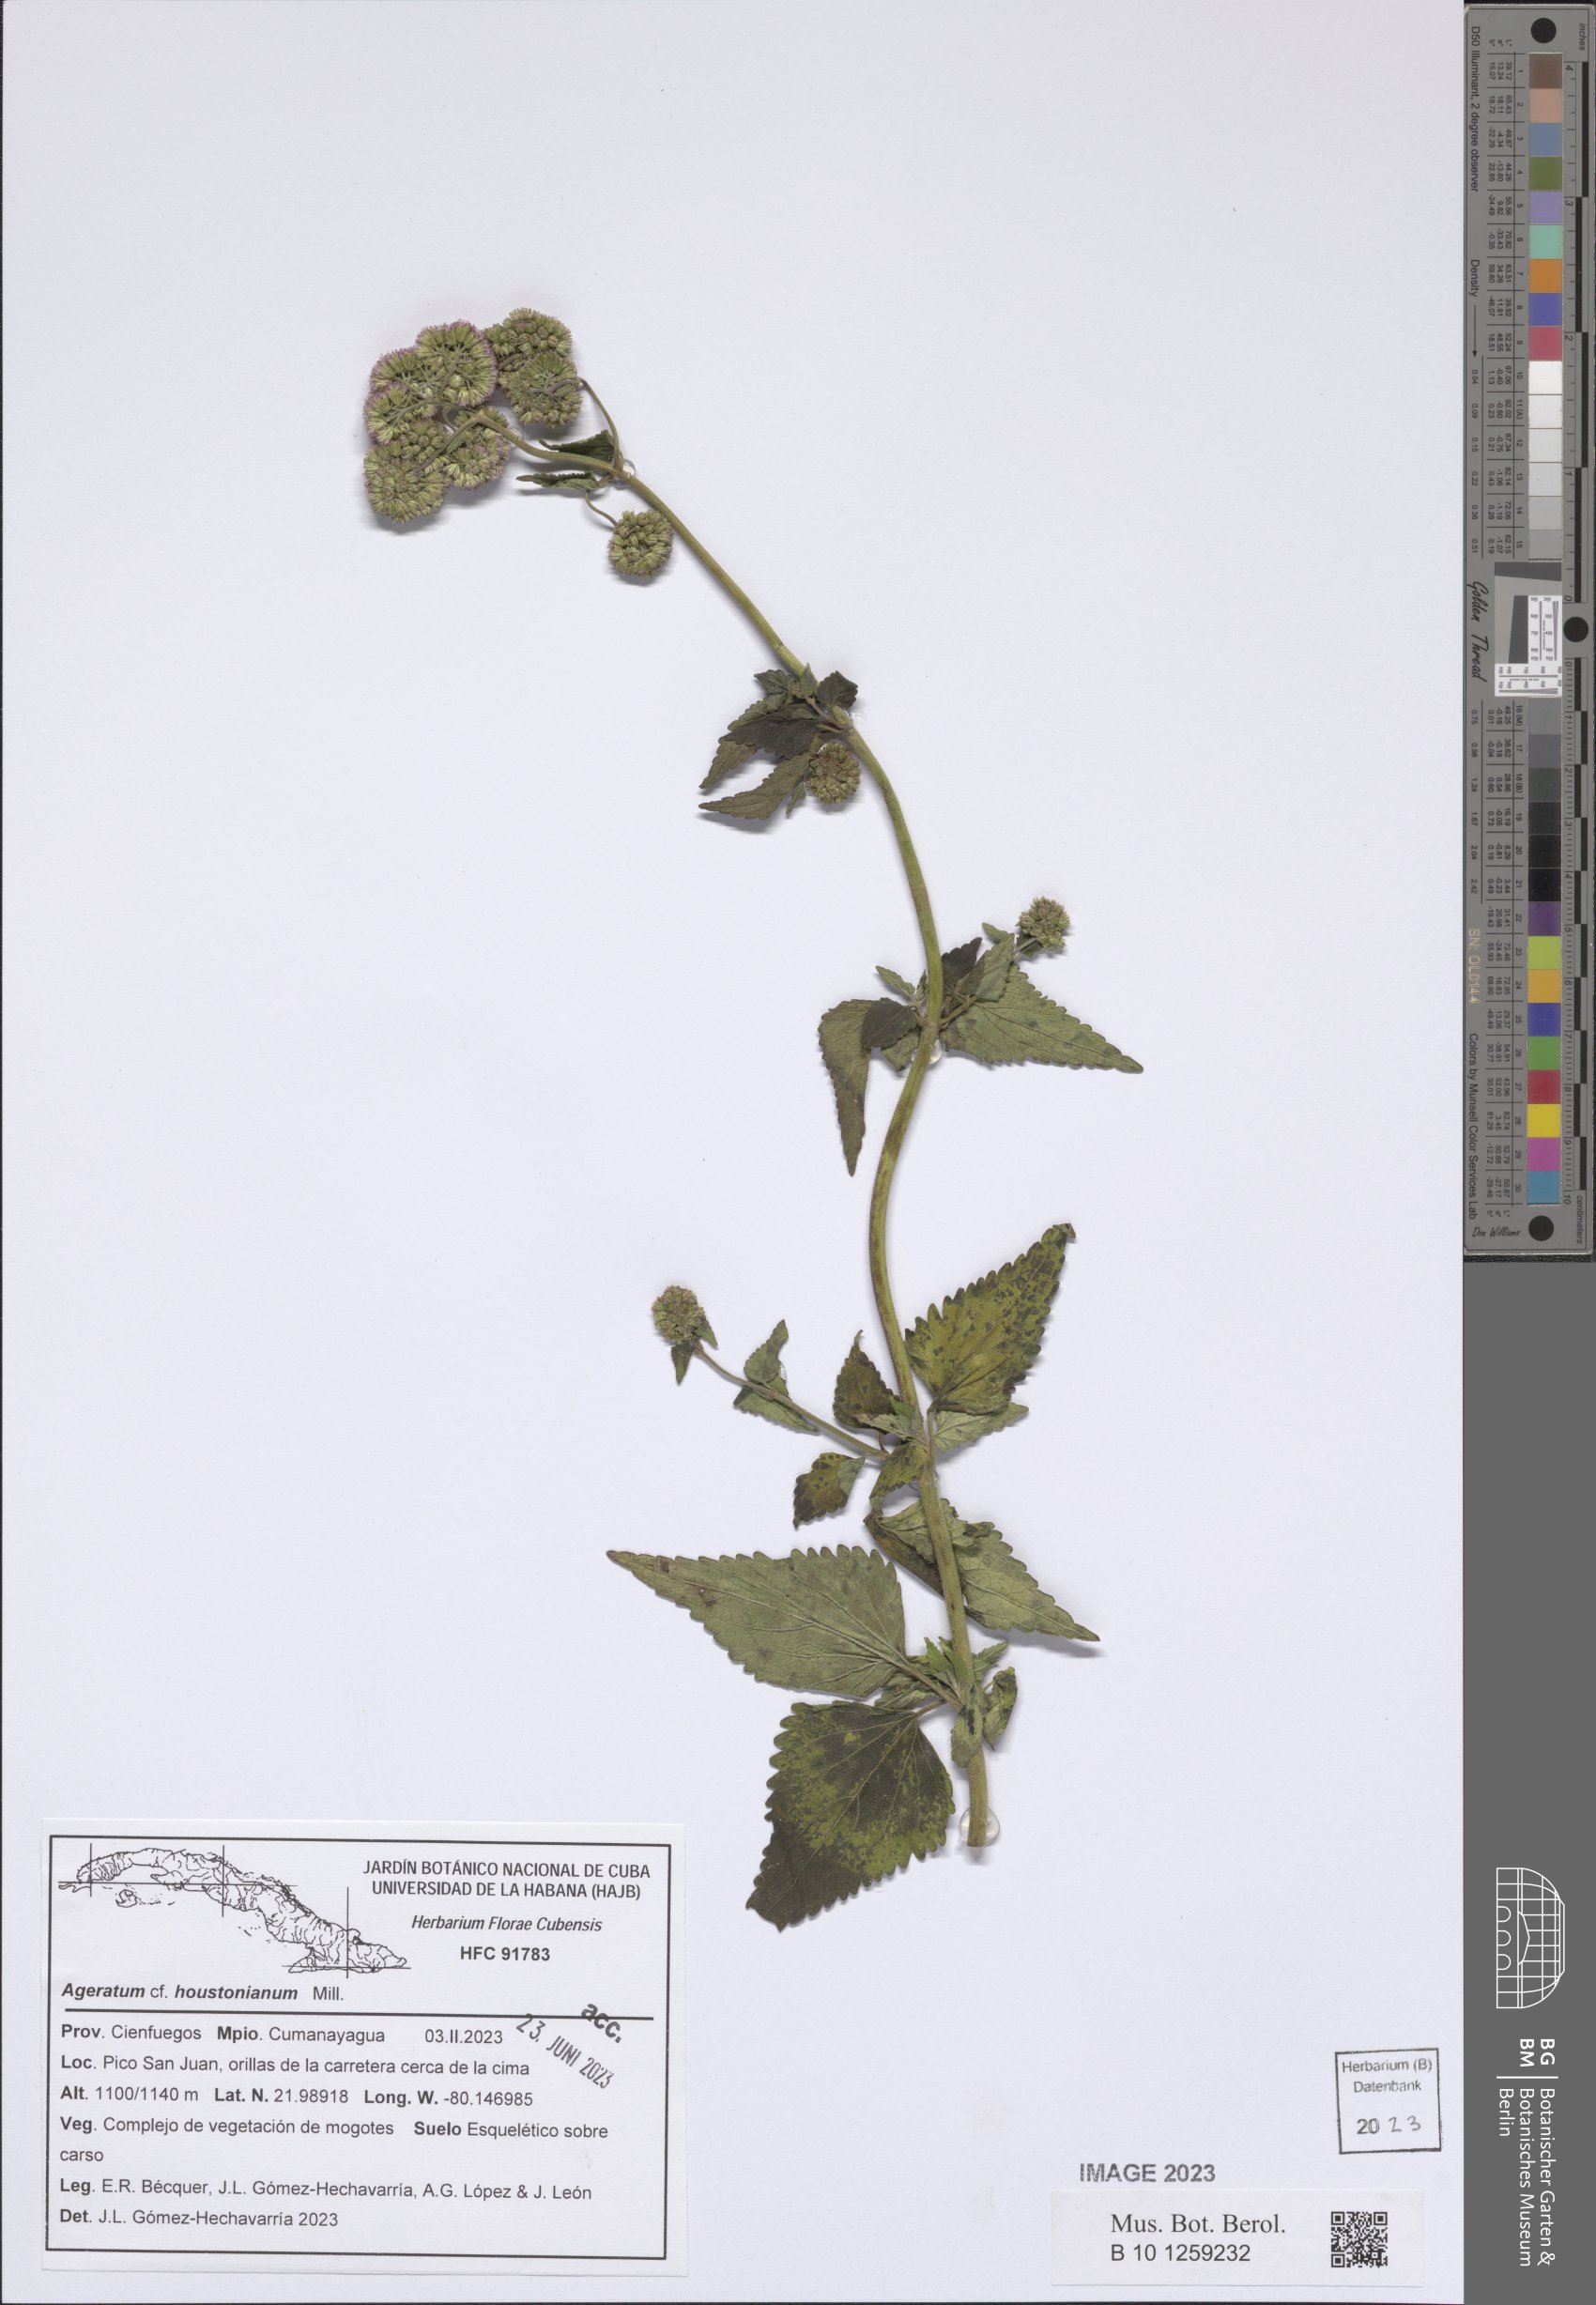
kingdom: Plantae
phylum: Tracheophyta
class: Magnoliopsida
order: Asterales
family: Asteraceae
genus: Ageratum
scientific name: Ageratum houstonianum
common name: Bluemink
